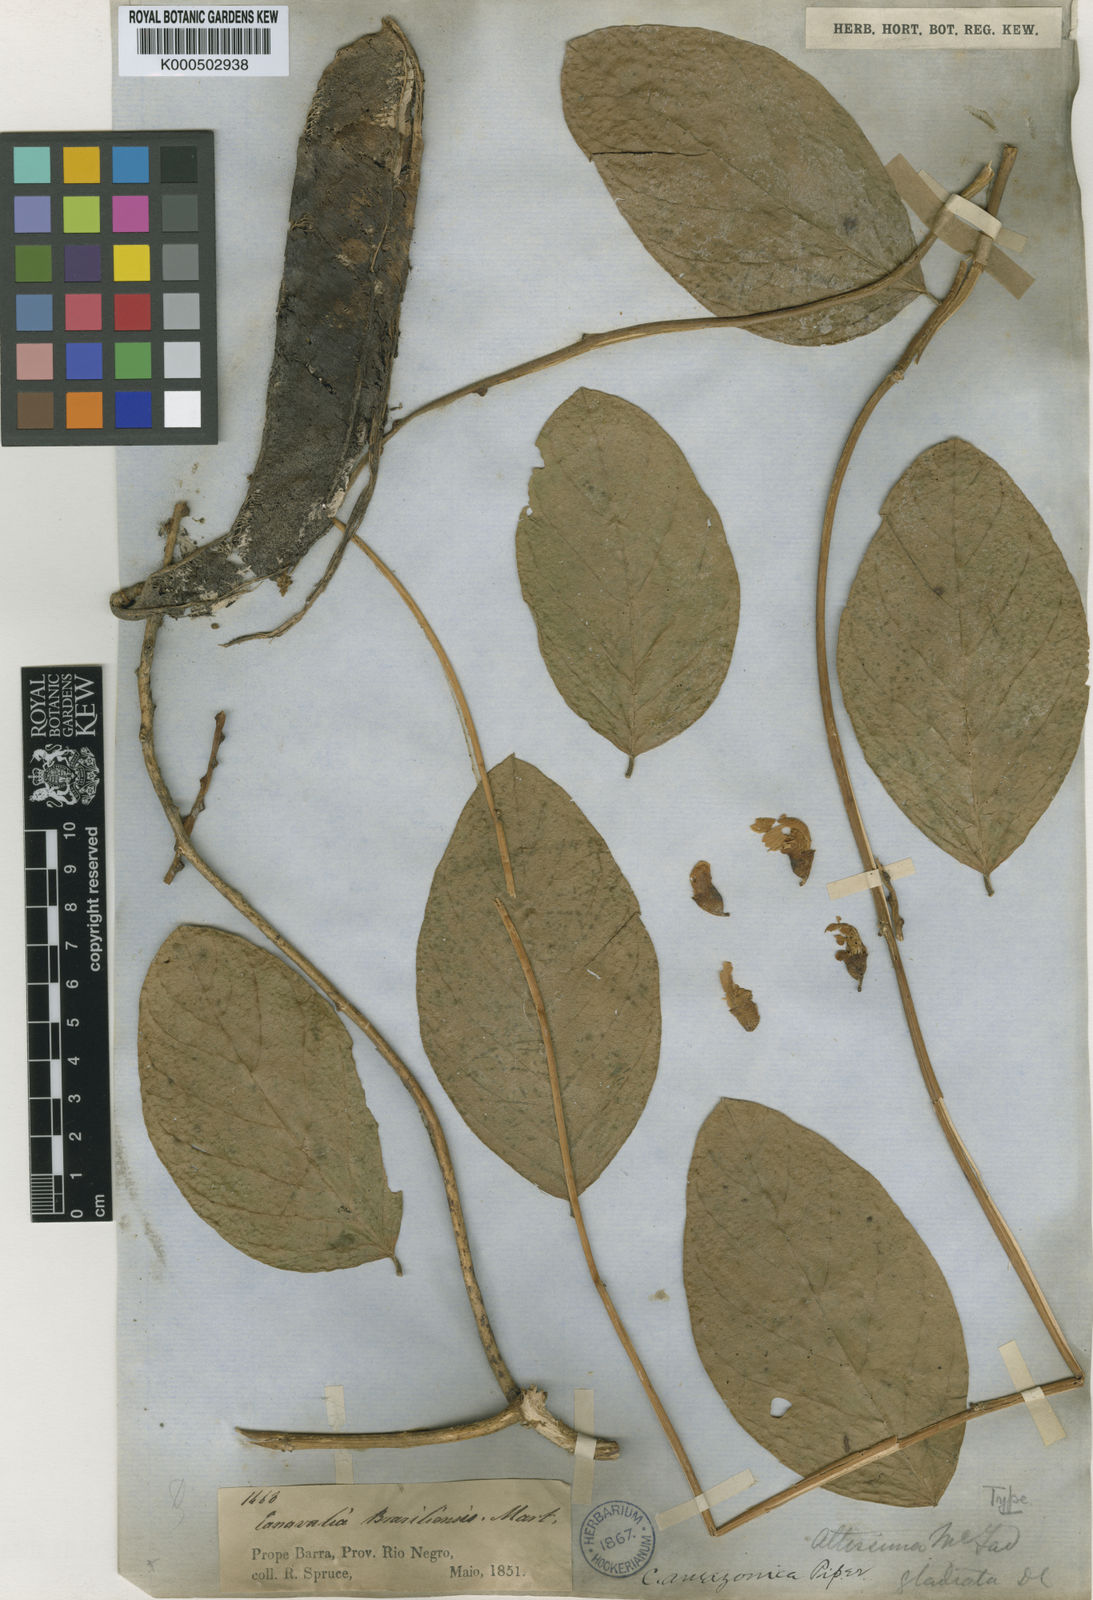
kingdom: Plantae
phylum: Tracheophyta
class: Magnoliopsida
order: Fabales
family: Fabaceae
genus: Canavalia
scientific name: Canavalia brasiliensis
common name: Barbicou-bean
